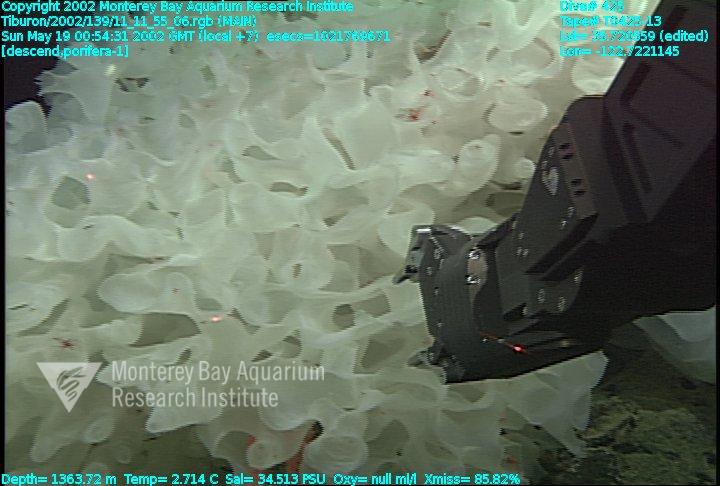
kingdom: Animalia
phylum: Porifera
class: Hexactinellida
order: Sceptrulophora
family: Farreidae
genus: Farrea
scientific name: Farrea occa
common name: Reversed glass sponge
